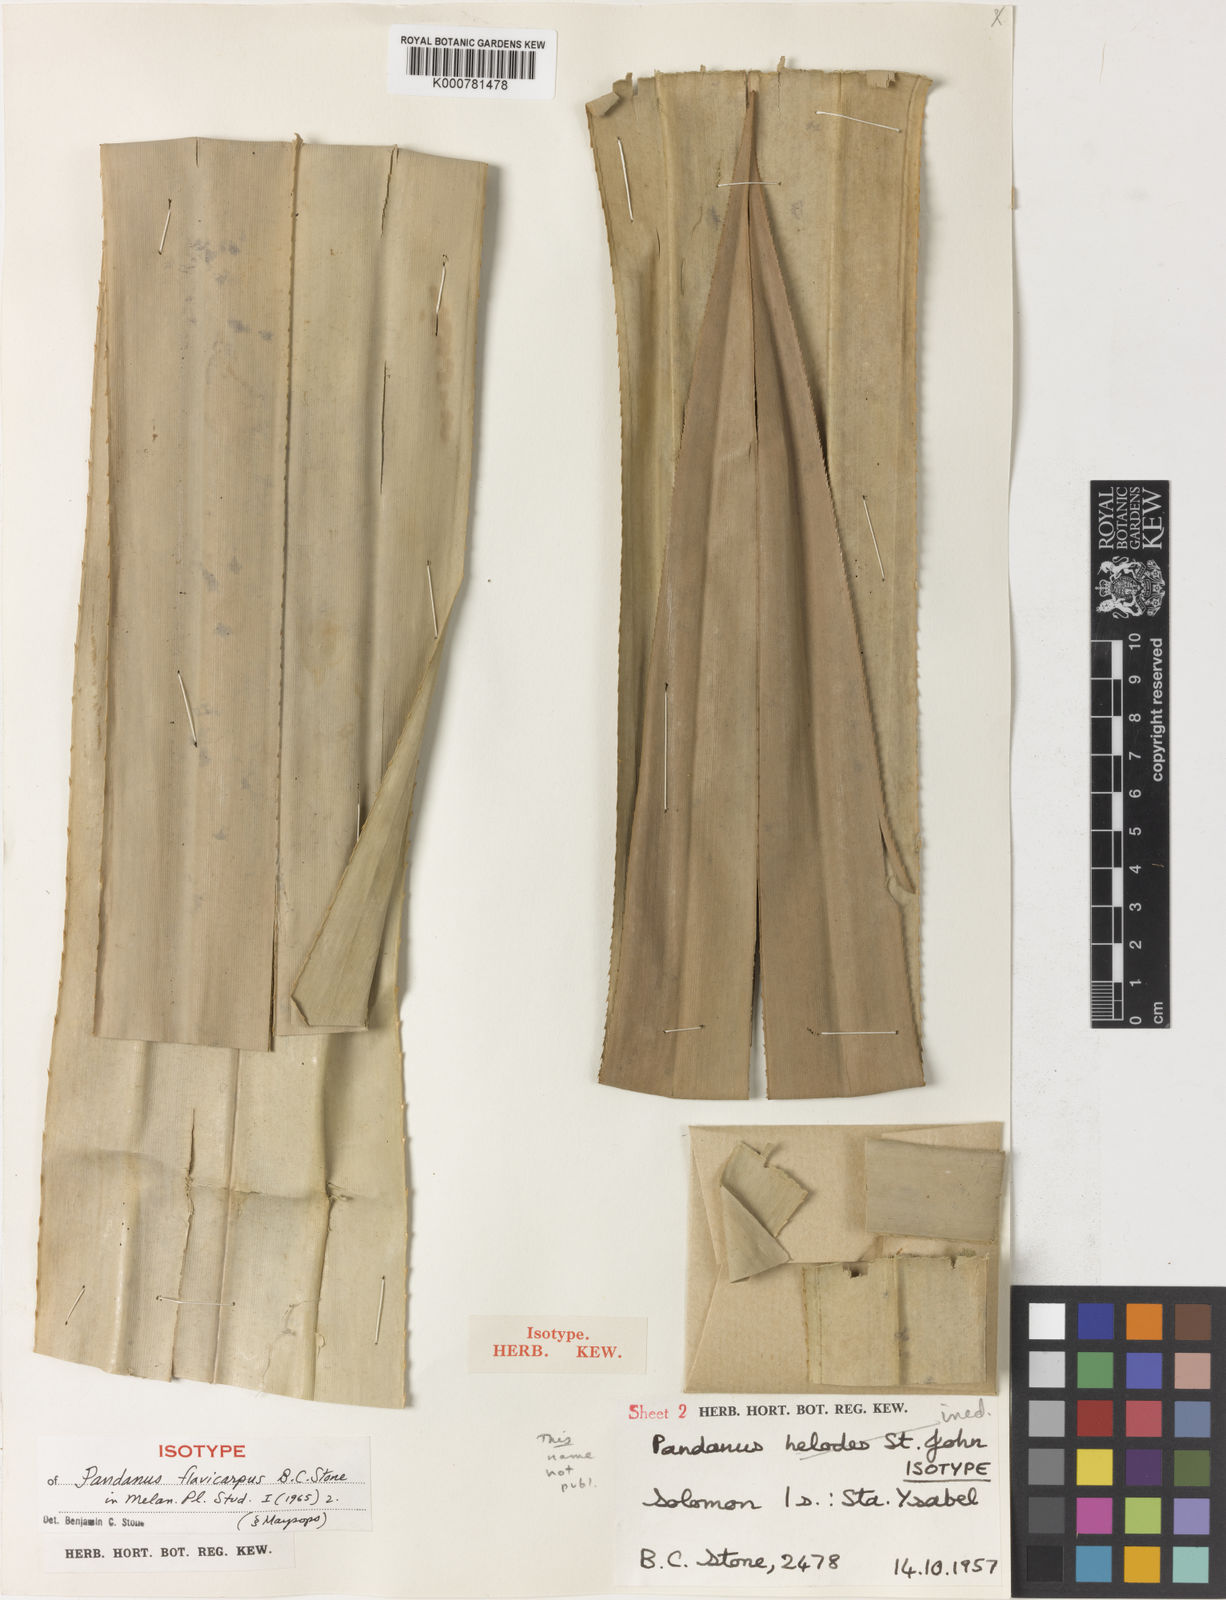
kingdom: Plantae
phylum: Tracheophyta
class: Liliopsida
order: Pandanales
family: Pandanaceae
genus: Pandanus
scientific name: Pandanus
